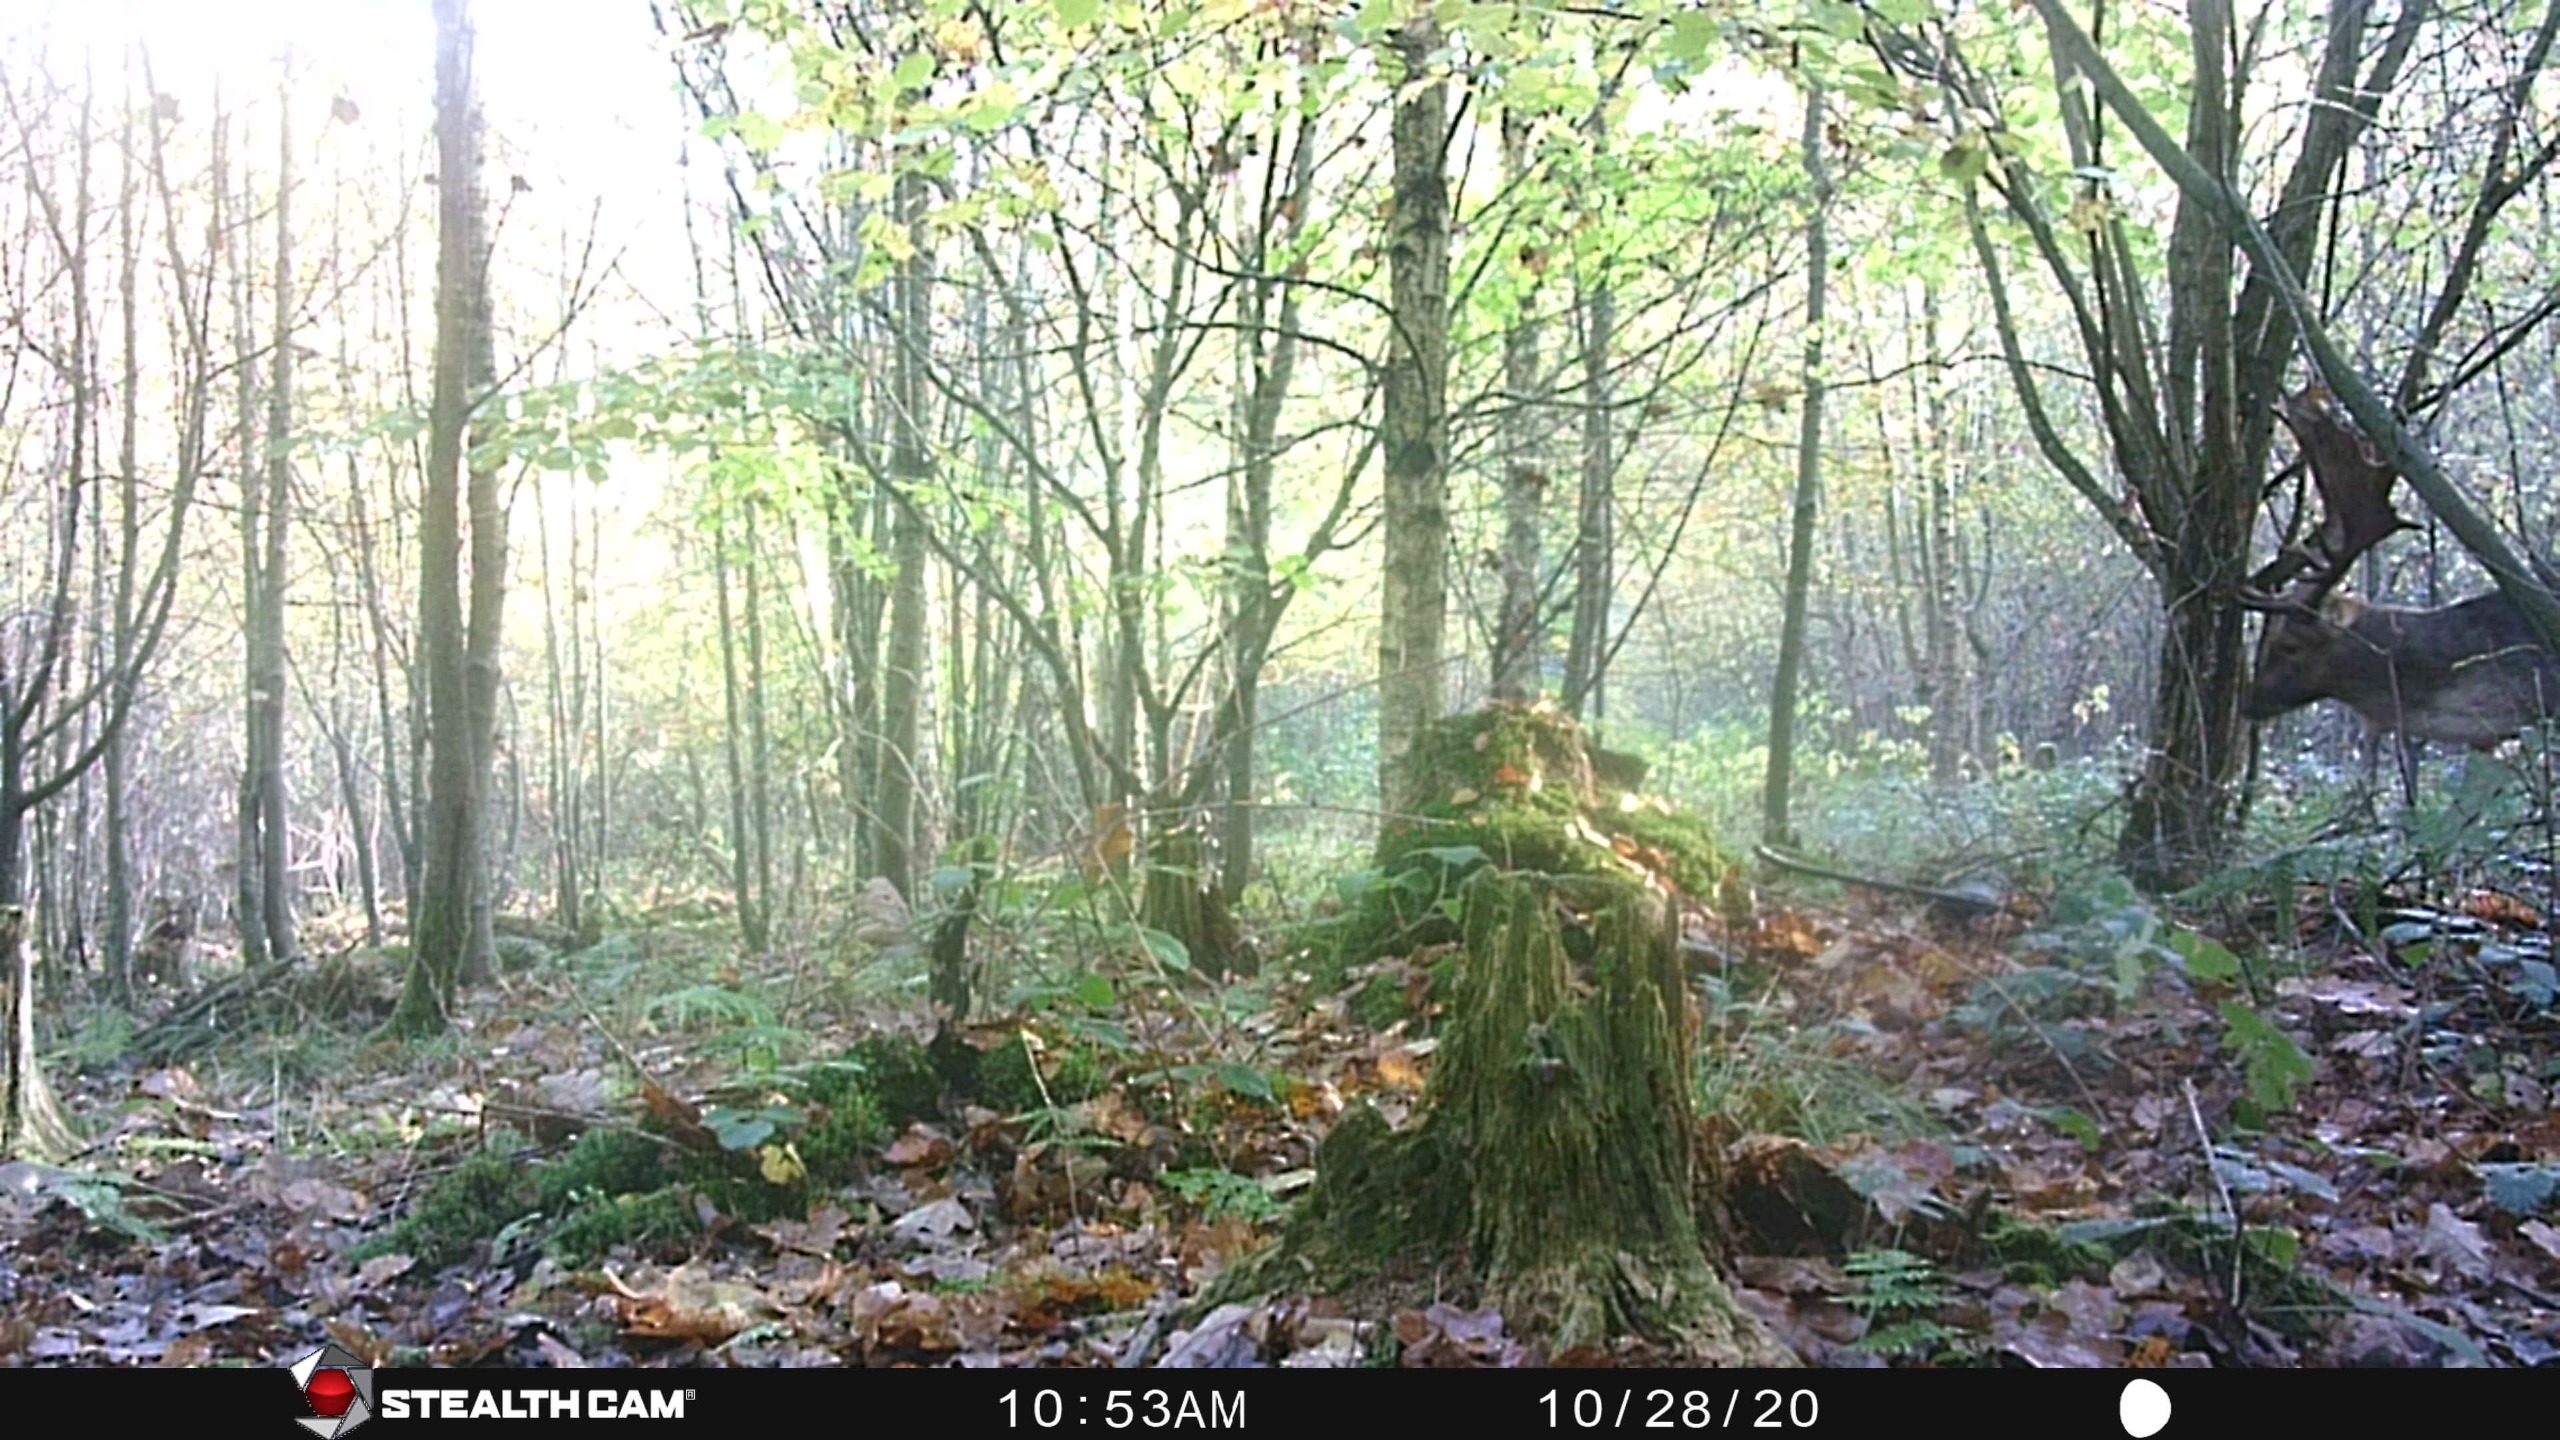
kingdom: Animalia
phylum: Chordata
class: Mammalia
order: Artiodactyla
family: Cervidae
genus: Dama
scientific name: Dama dama
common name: Dådyr
